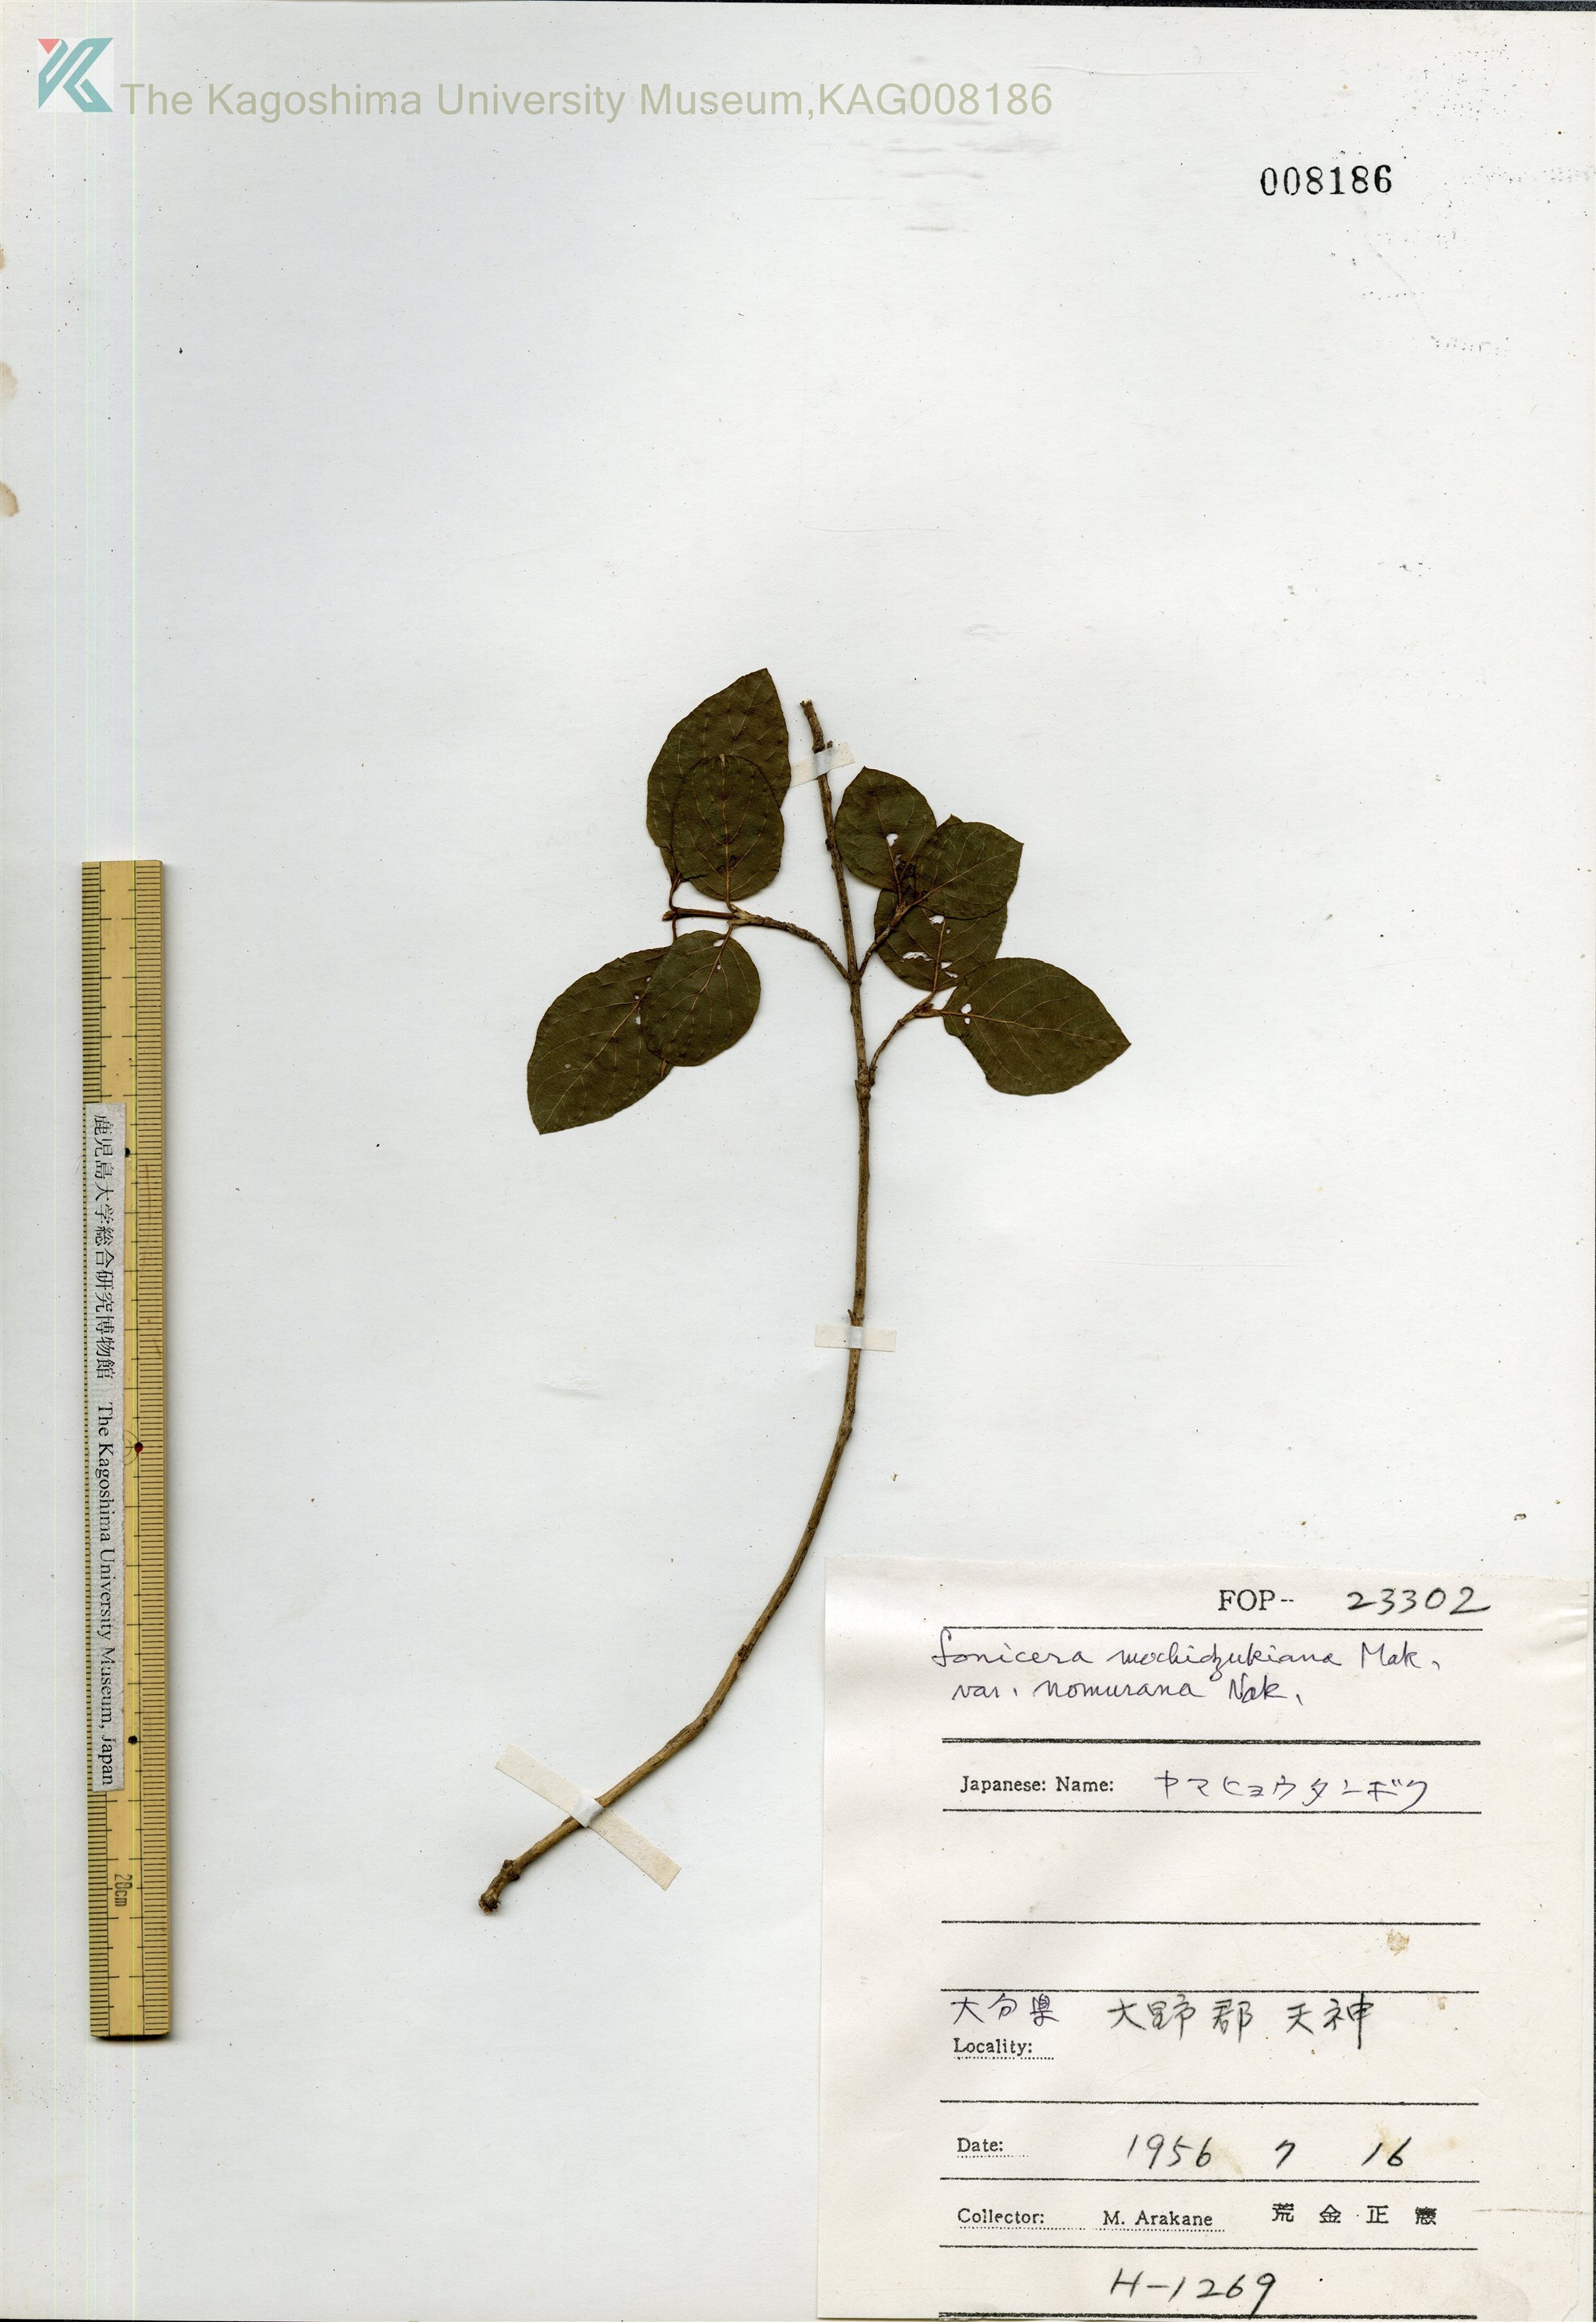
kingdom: Plantae
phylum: Tracheophyta
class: Magnoliopsida
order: Dipsacales
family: Caprifoliaceae
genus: Lonicera
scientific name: Lonicera subhispida
